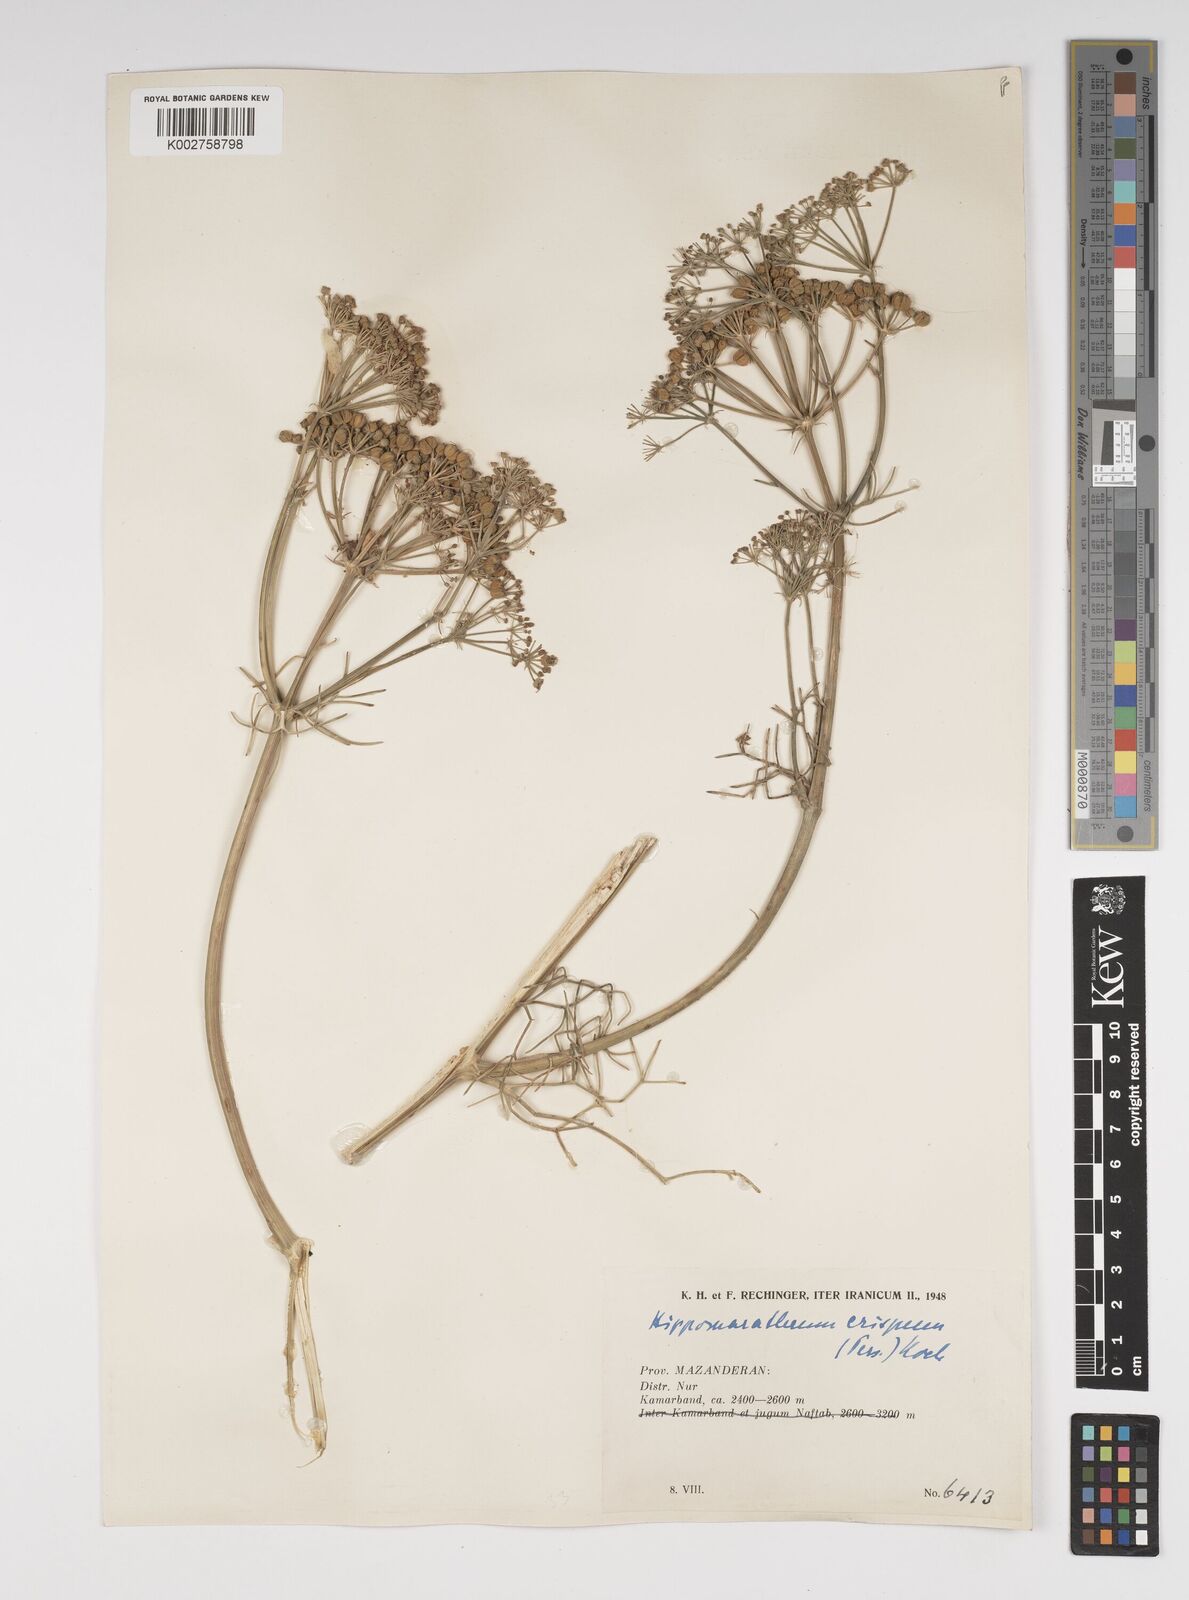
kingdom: Plantae
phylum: Tracheophyta
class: Magnoliopsida
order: Apiales
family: Apiaceae
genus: Bilacunaria
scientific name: Bilacunaria microcarpa
